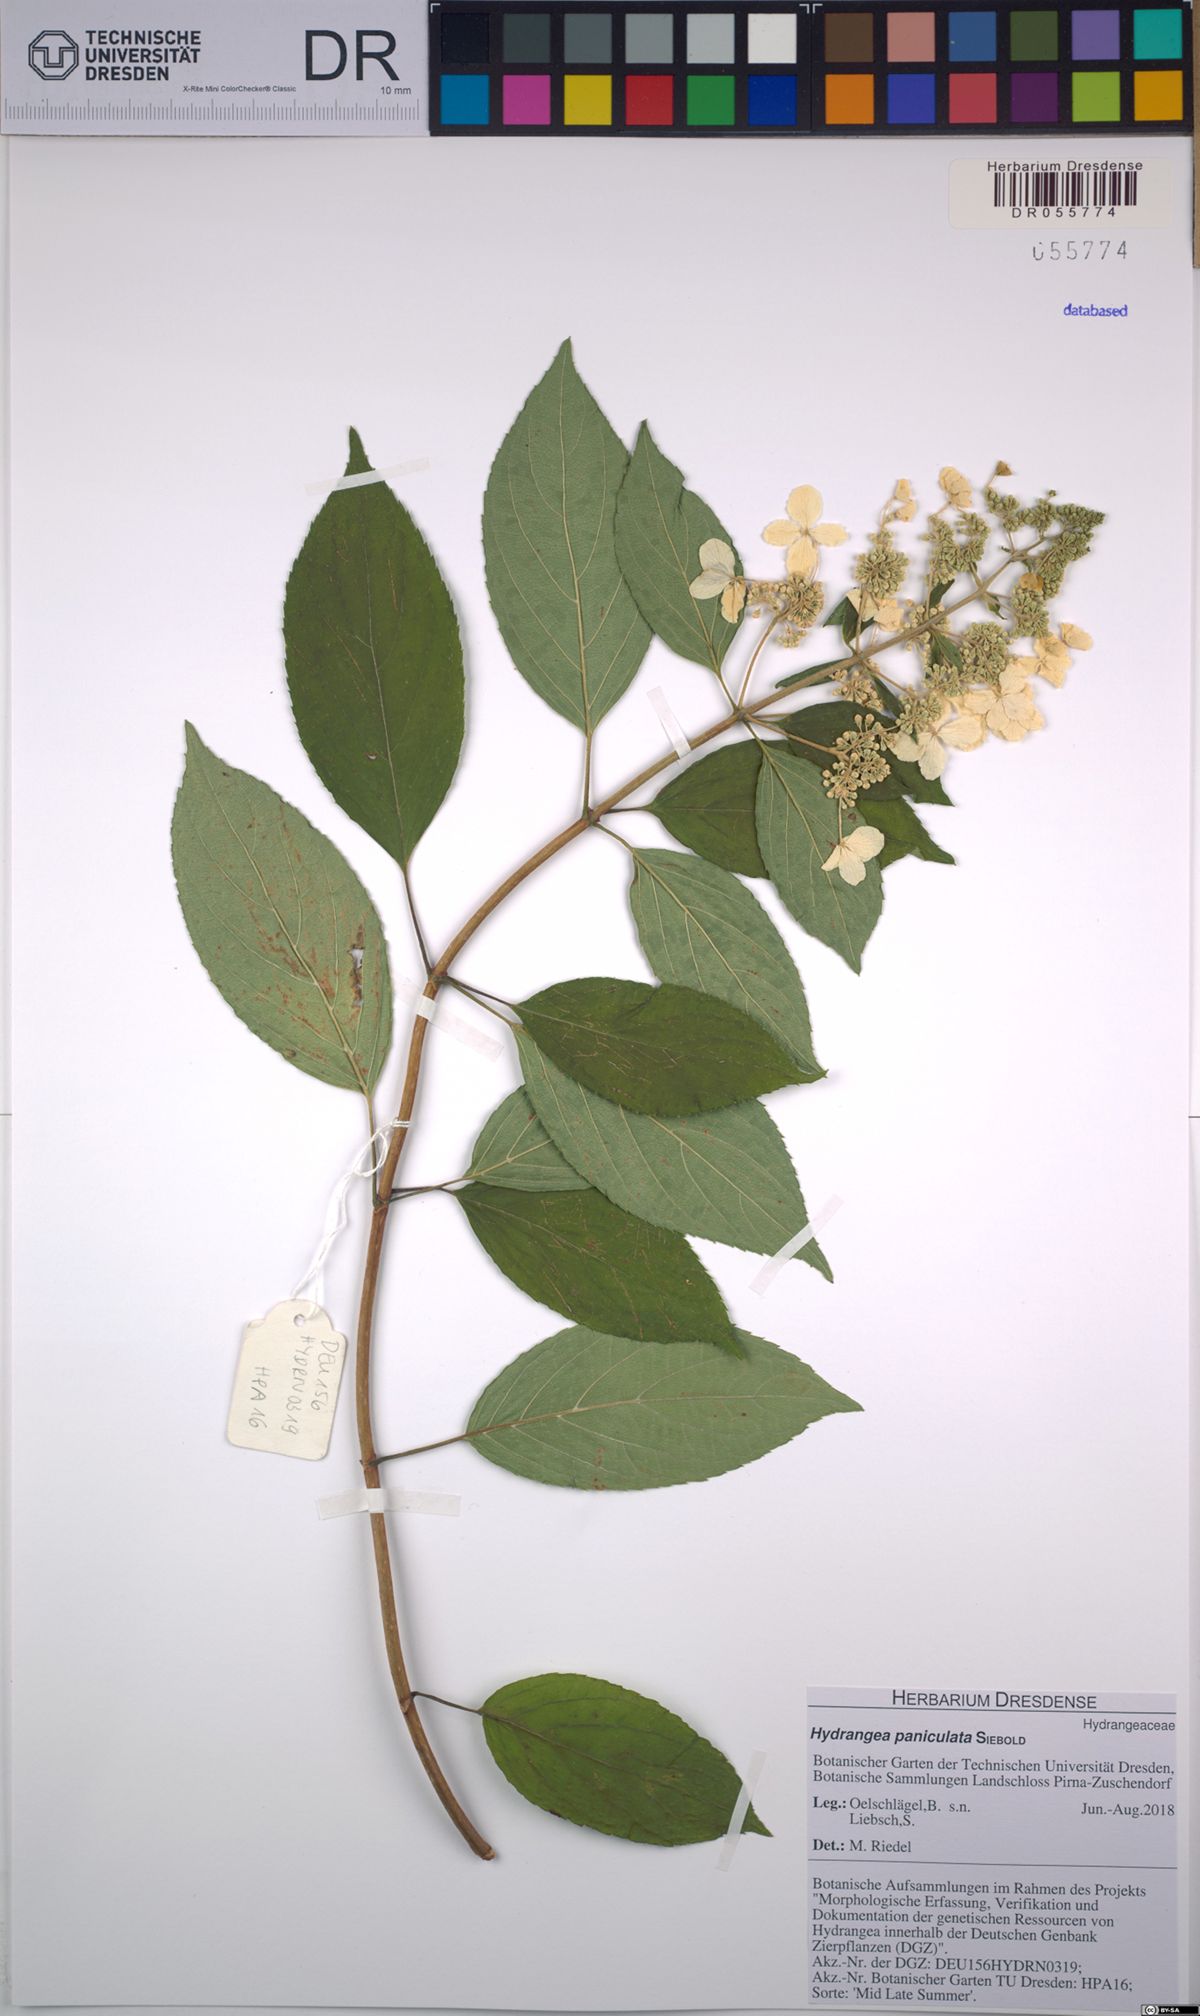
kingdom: Plantae
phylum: Tracheophyta
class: Magnoliopsida
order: Cornales
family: Hydrangeaceae
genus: Hydrangea
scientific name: Hydrangea paniculata
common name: Panicled hydrangea
